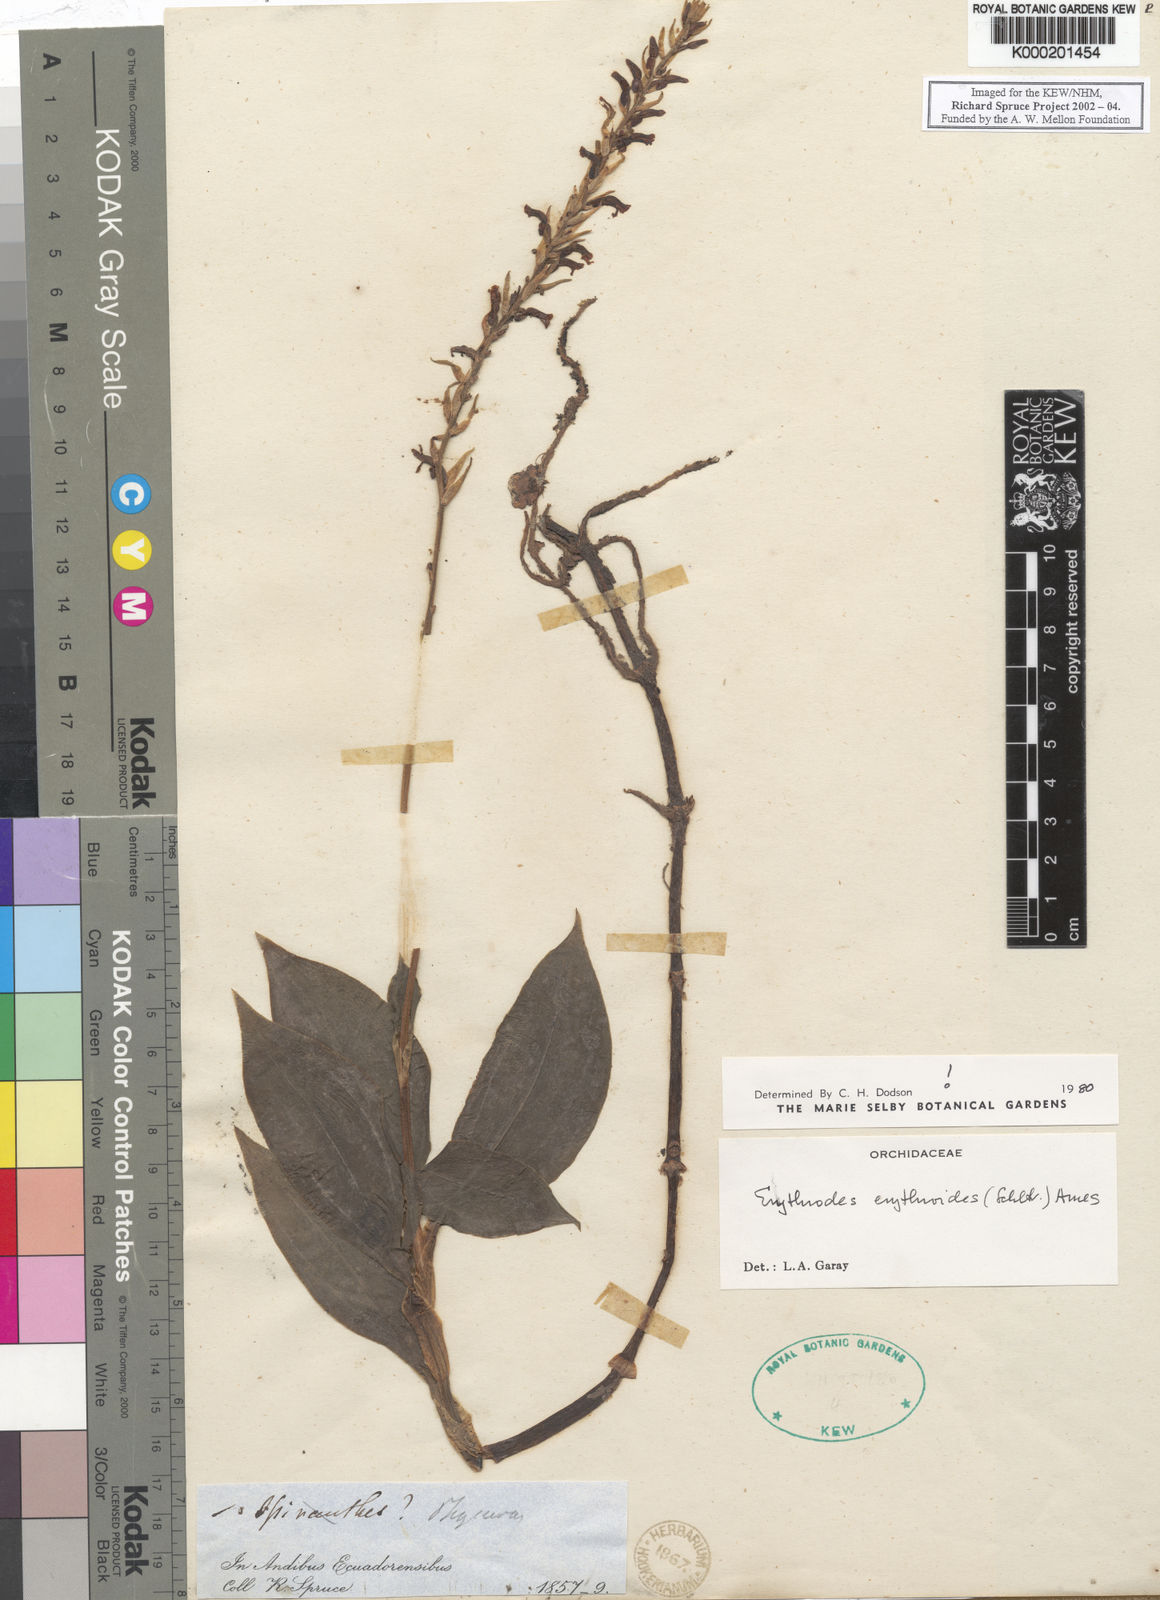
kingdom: Plantae
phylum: Tracheophyta
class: Liliopsida
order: Asparagales
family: Orchidaceae
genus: Microchilus
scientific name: Microchilus erythrodoides
